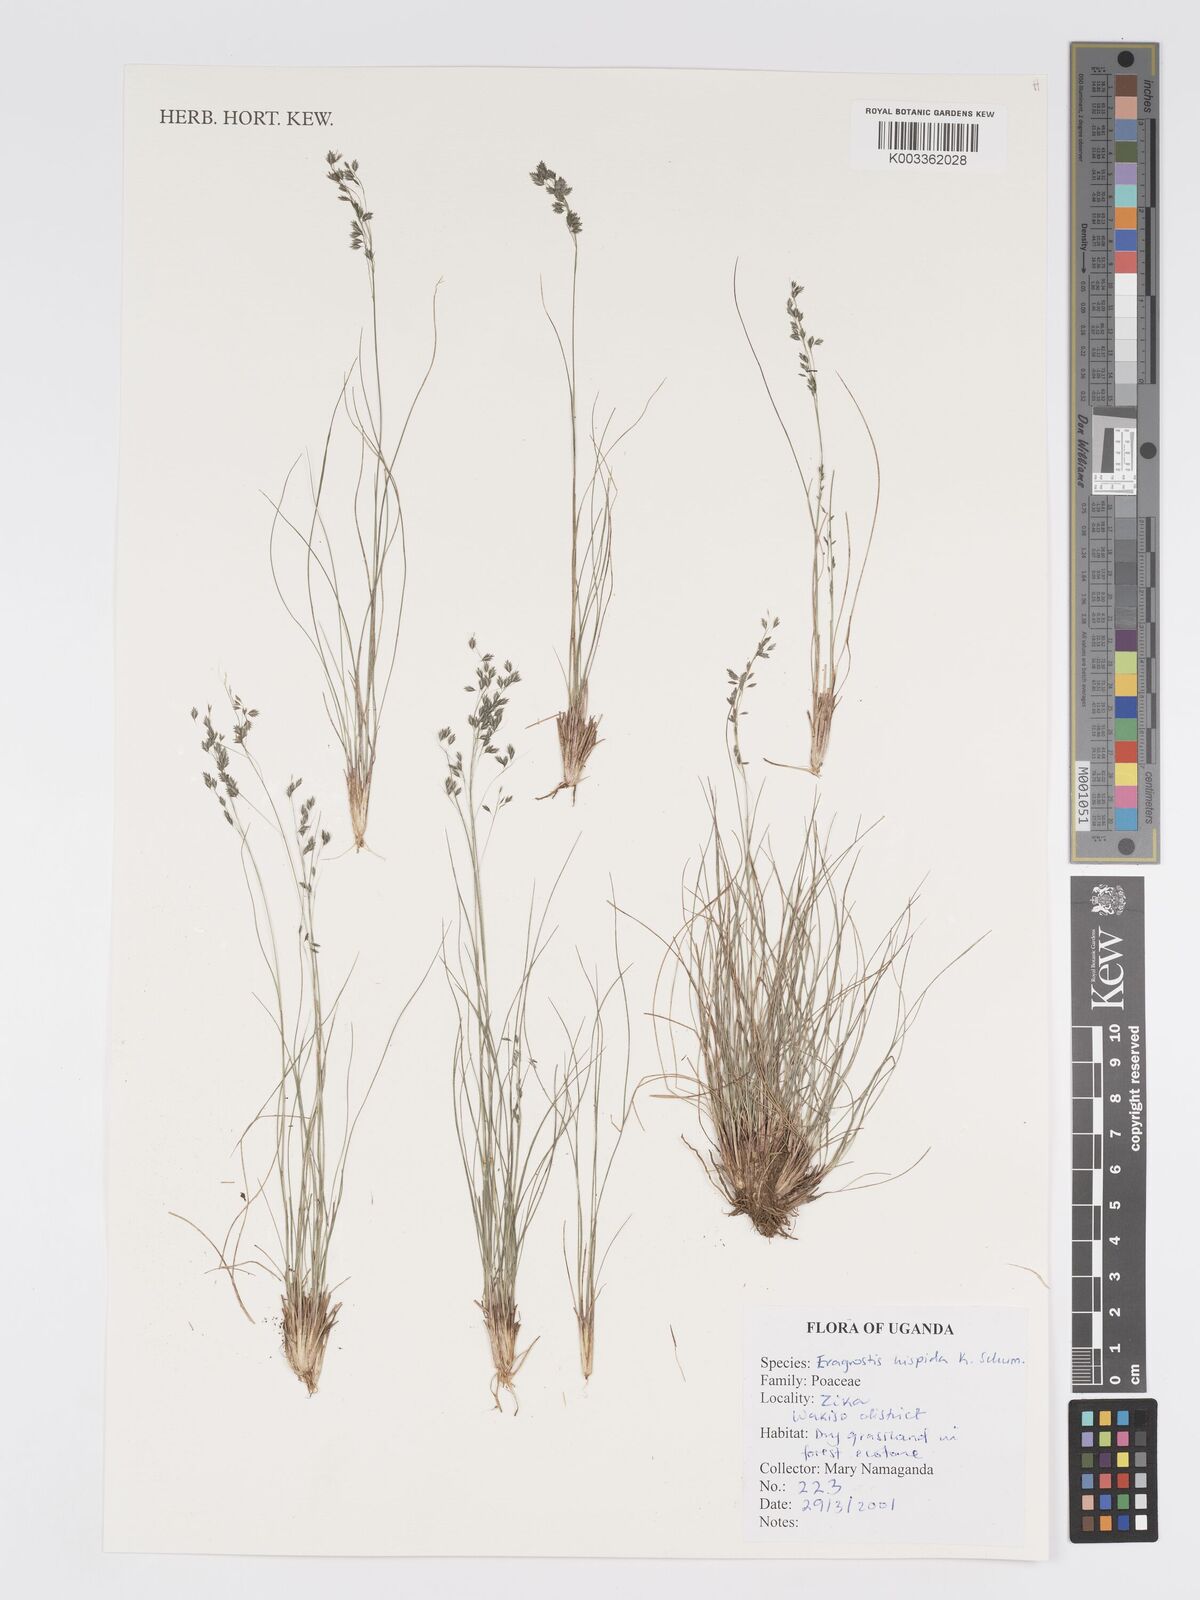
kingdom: Plantae
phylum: Tracheophyta
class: Liliopsida
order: Poales
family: Poaceae
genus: Eragrostis
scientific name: Eragrostis hispida
